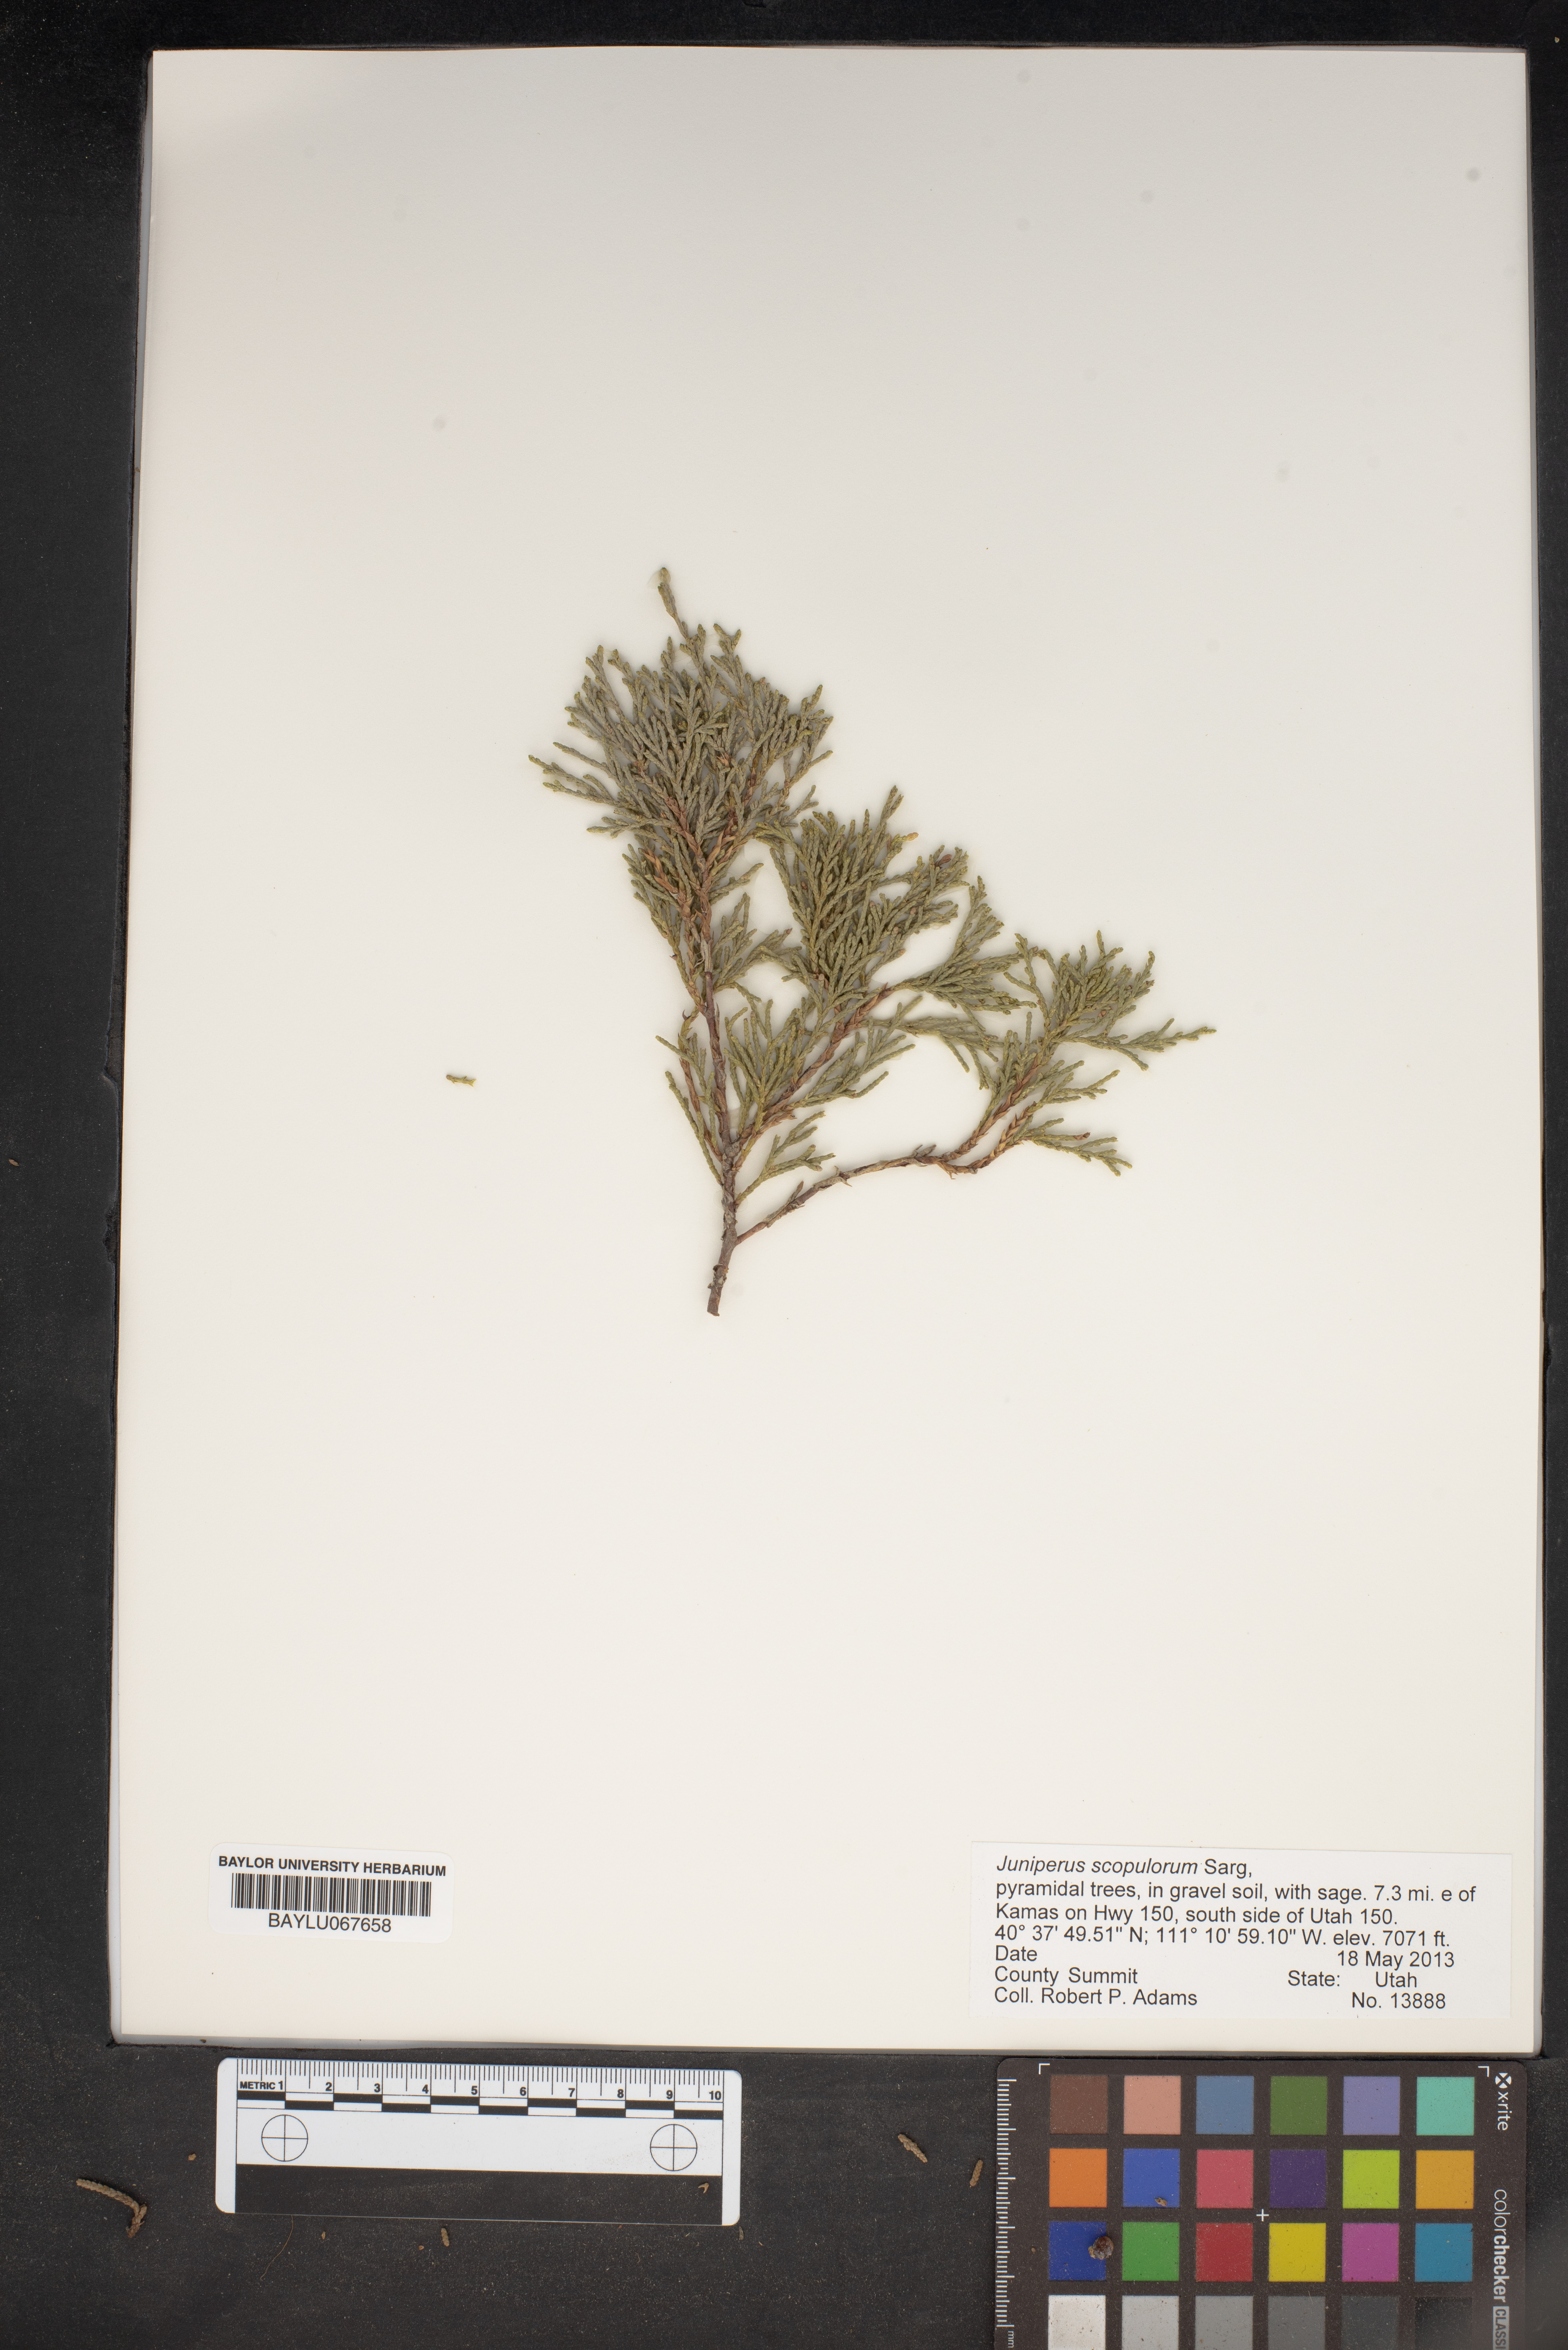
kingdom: Plantae
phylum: Tracheophyta
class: Pinopsida
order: Pinales
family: Cupressaceae
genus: Juniperus
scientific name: Juniperus scopulorum
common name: Rocky mountain juniper
